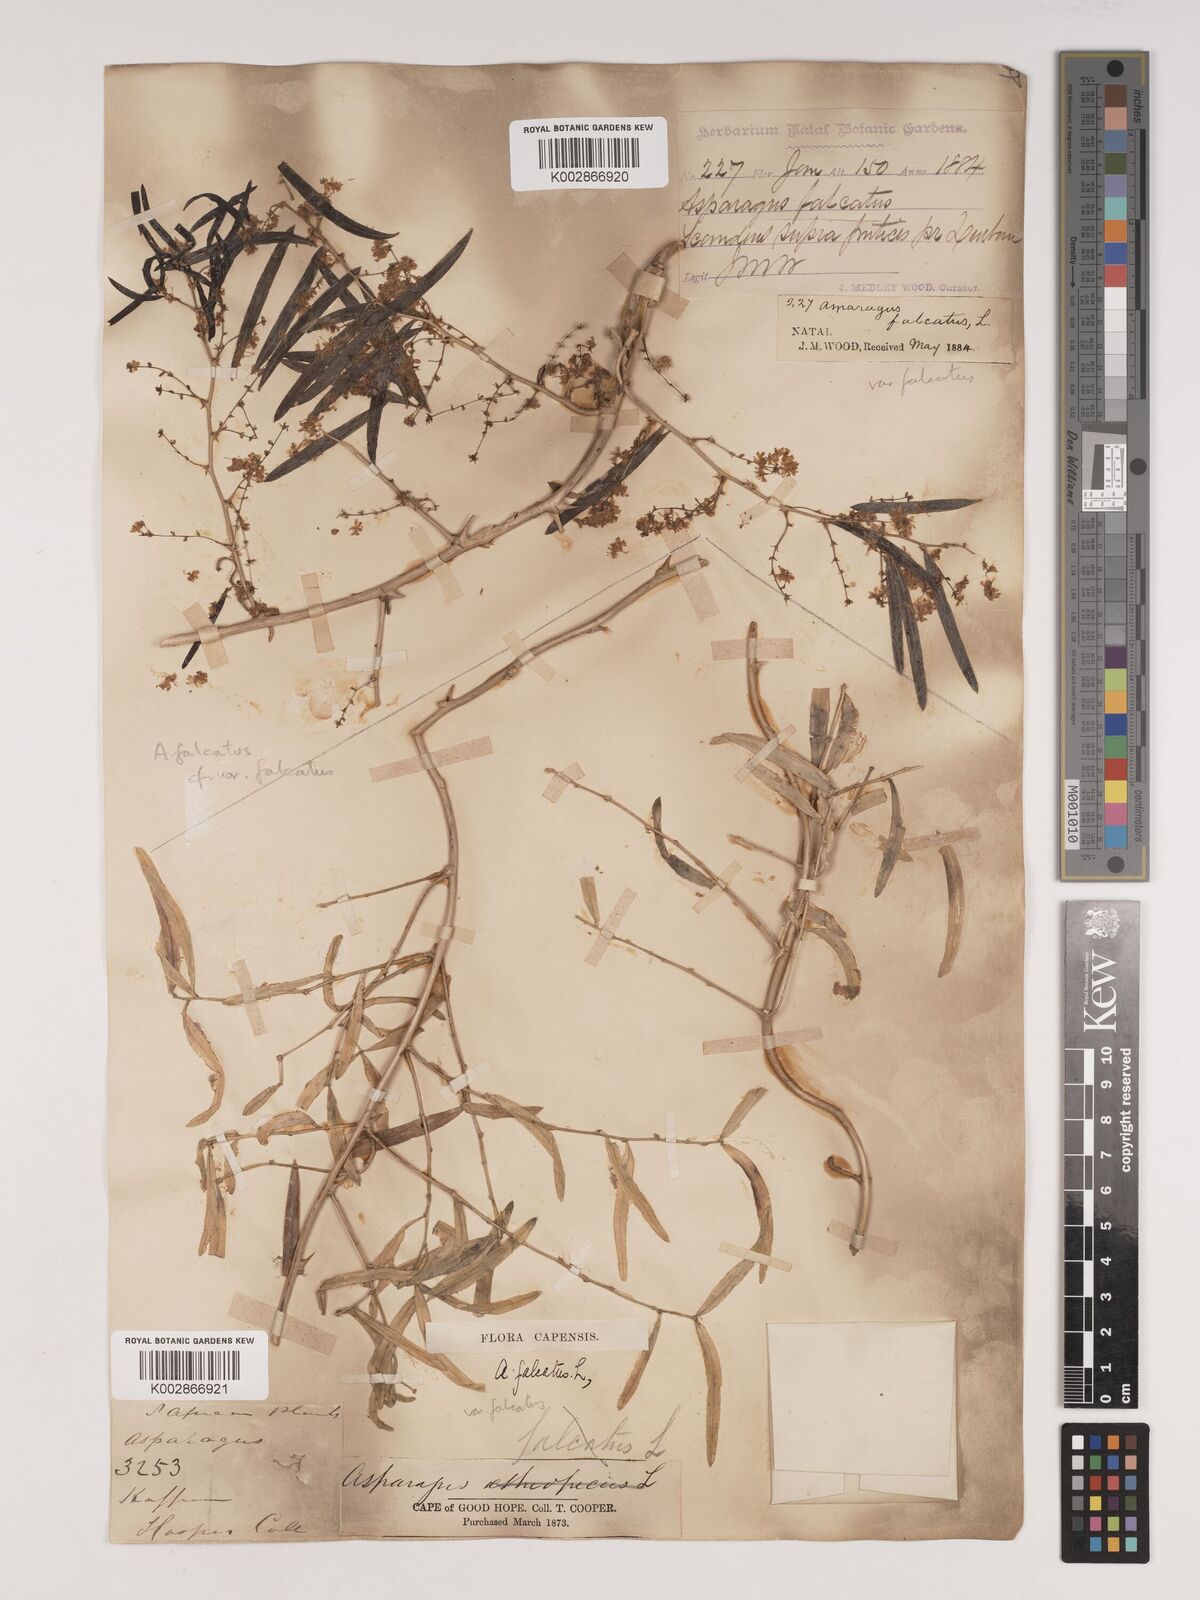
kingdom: Plantae
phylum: Tracheophyta
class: Liliopsida
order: Asparagales
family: Asparagaceae
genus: Asparagus
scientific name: Asparagus falcatus
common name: Asparagus
